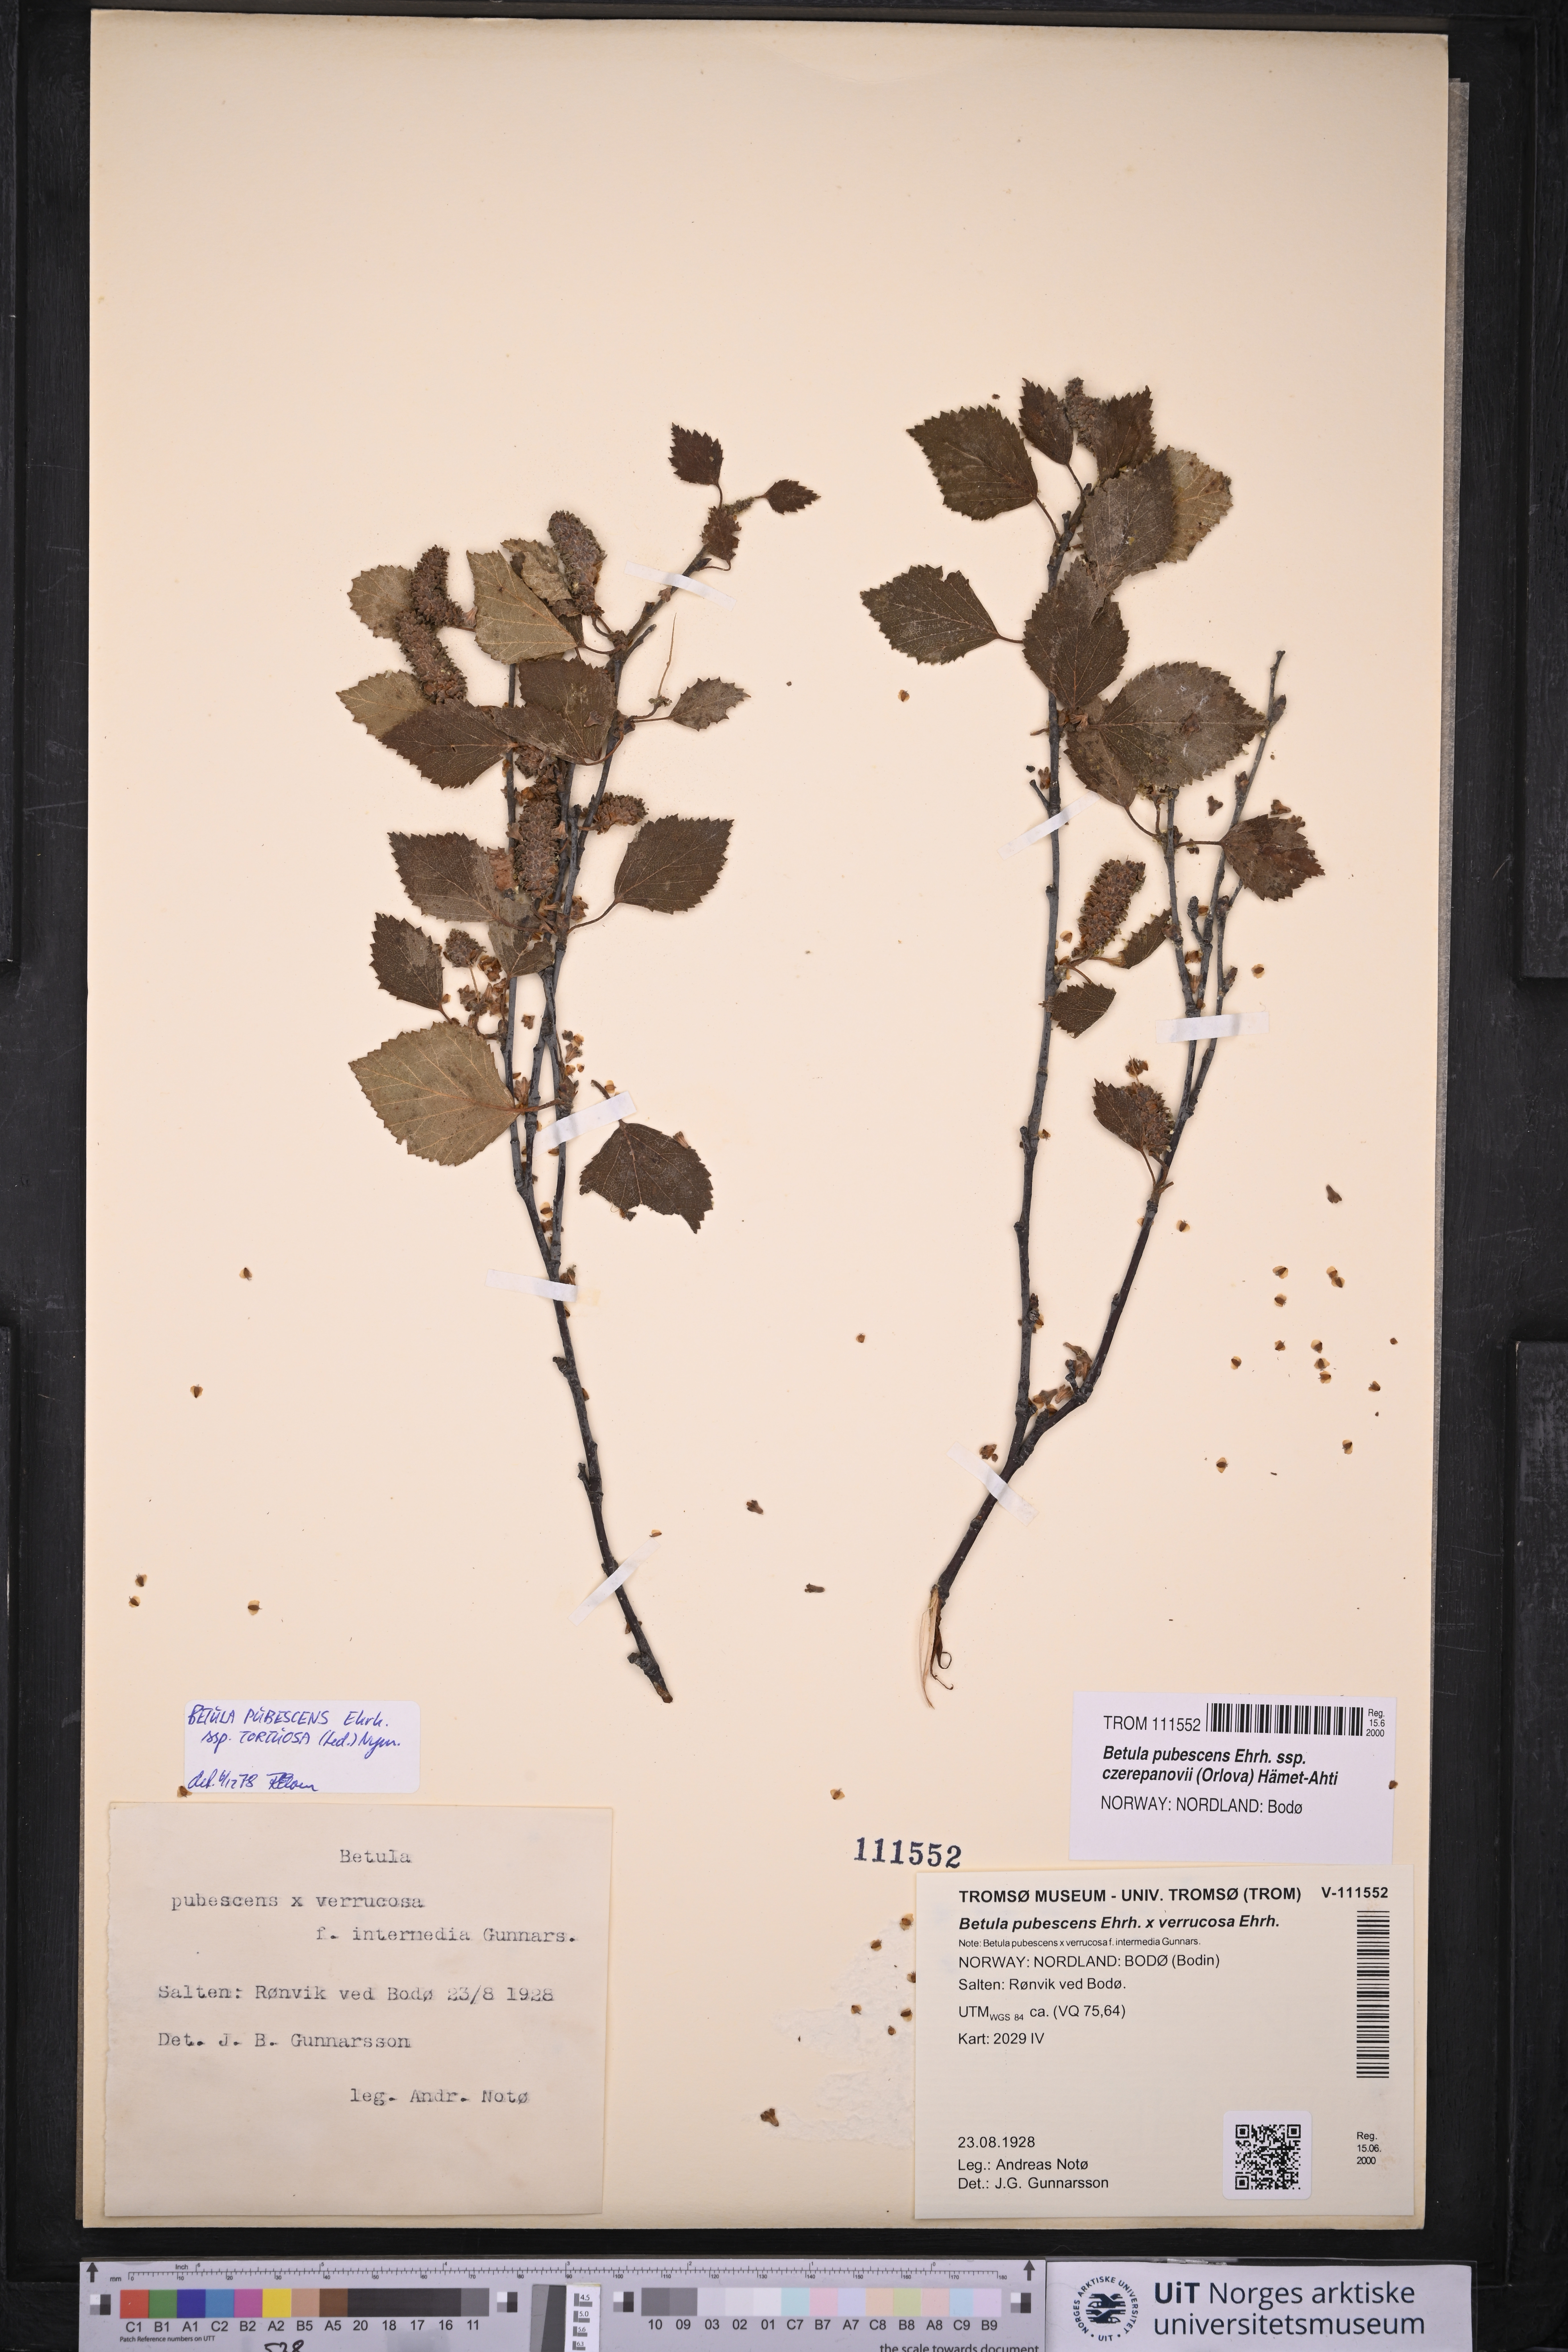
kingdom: Plantae
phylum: Tracheophyta
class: Magnoliopsida
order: Fagales
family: Betulaceae
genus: Betula
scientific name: Betula pubescens
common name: Downy birch
